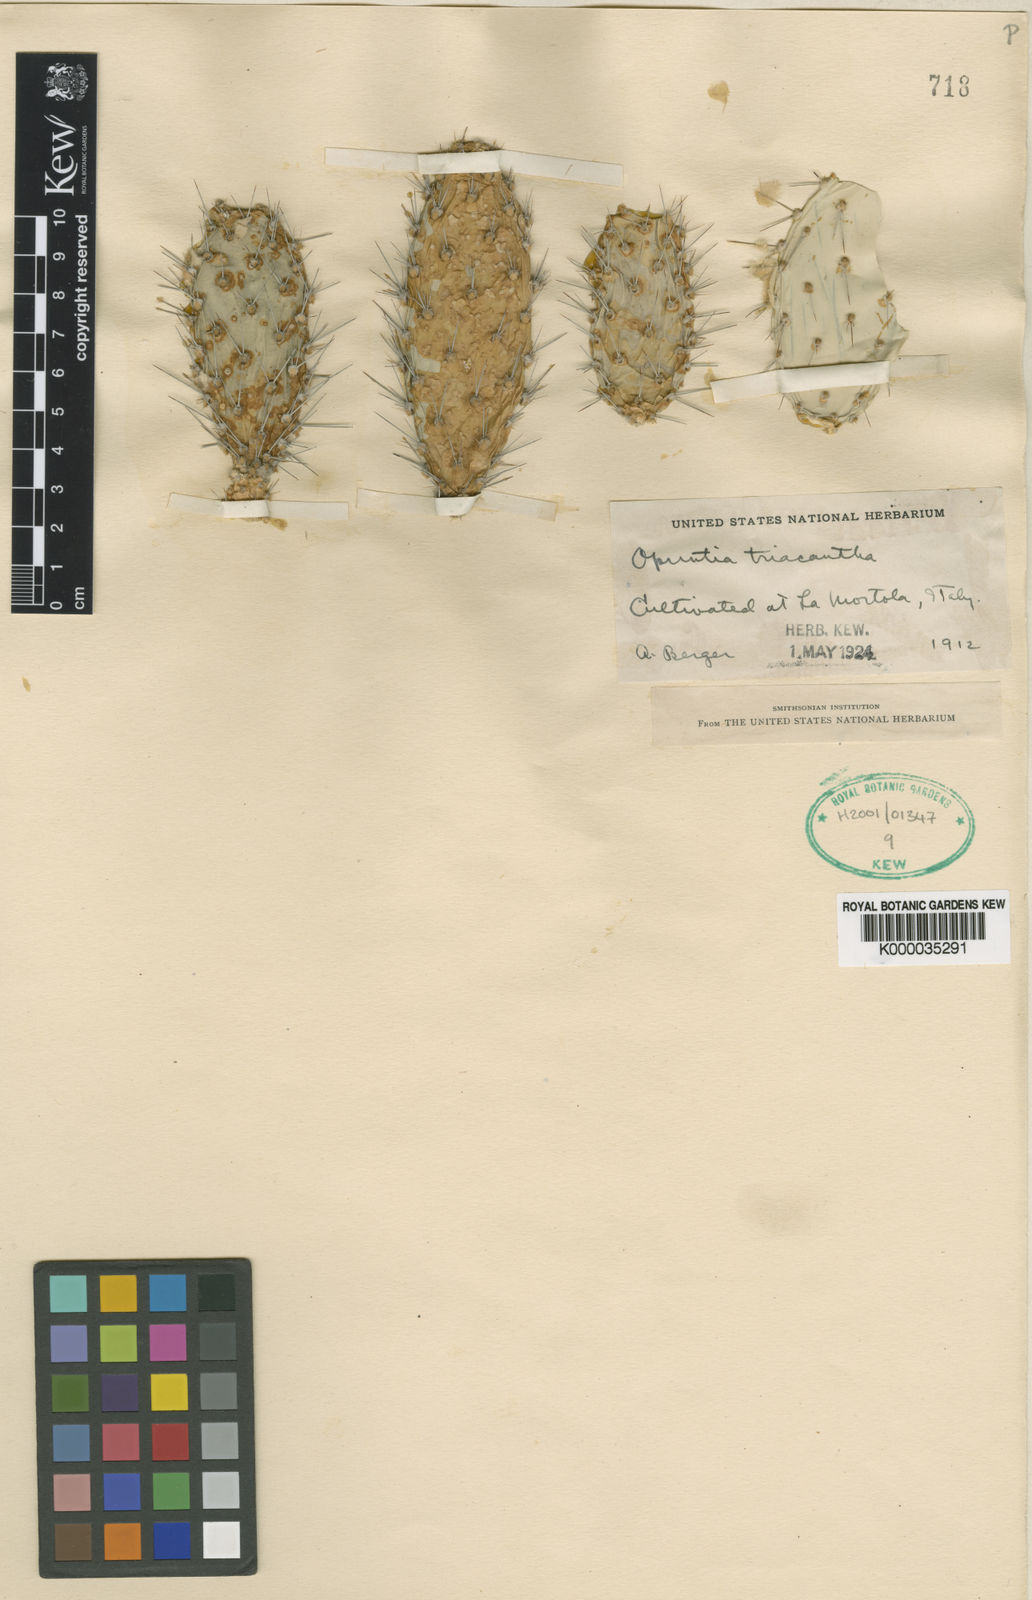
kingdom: Plantae
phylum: Tracheophyta
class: Magnoliopsida
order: Caryophyllales
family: Cactaceae
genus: Opuntia
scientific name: Opuntia
